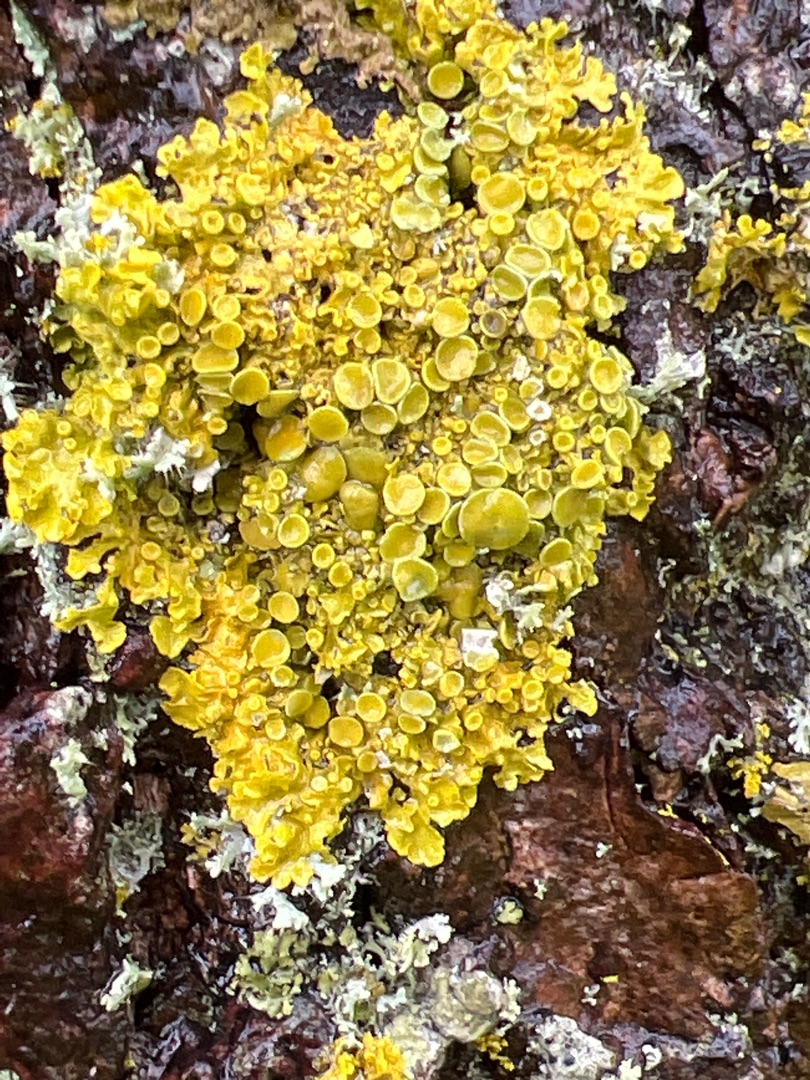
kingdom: Fungi
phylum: Ascomycota
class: Lecanoromycetes
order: Teloschistales
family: Teloschistaceae
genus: Xanthoria
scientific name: Xanthoria parietina
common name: Almindelig væggelav
